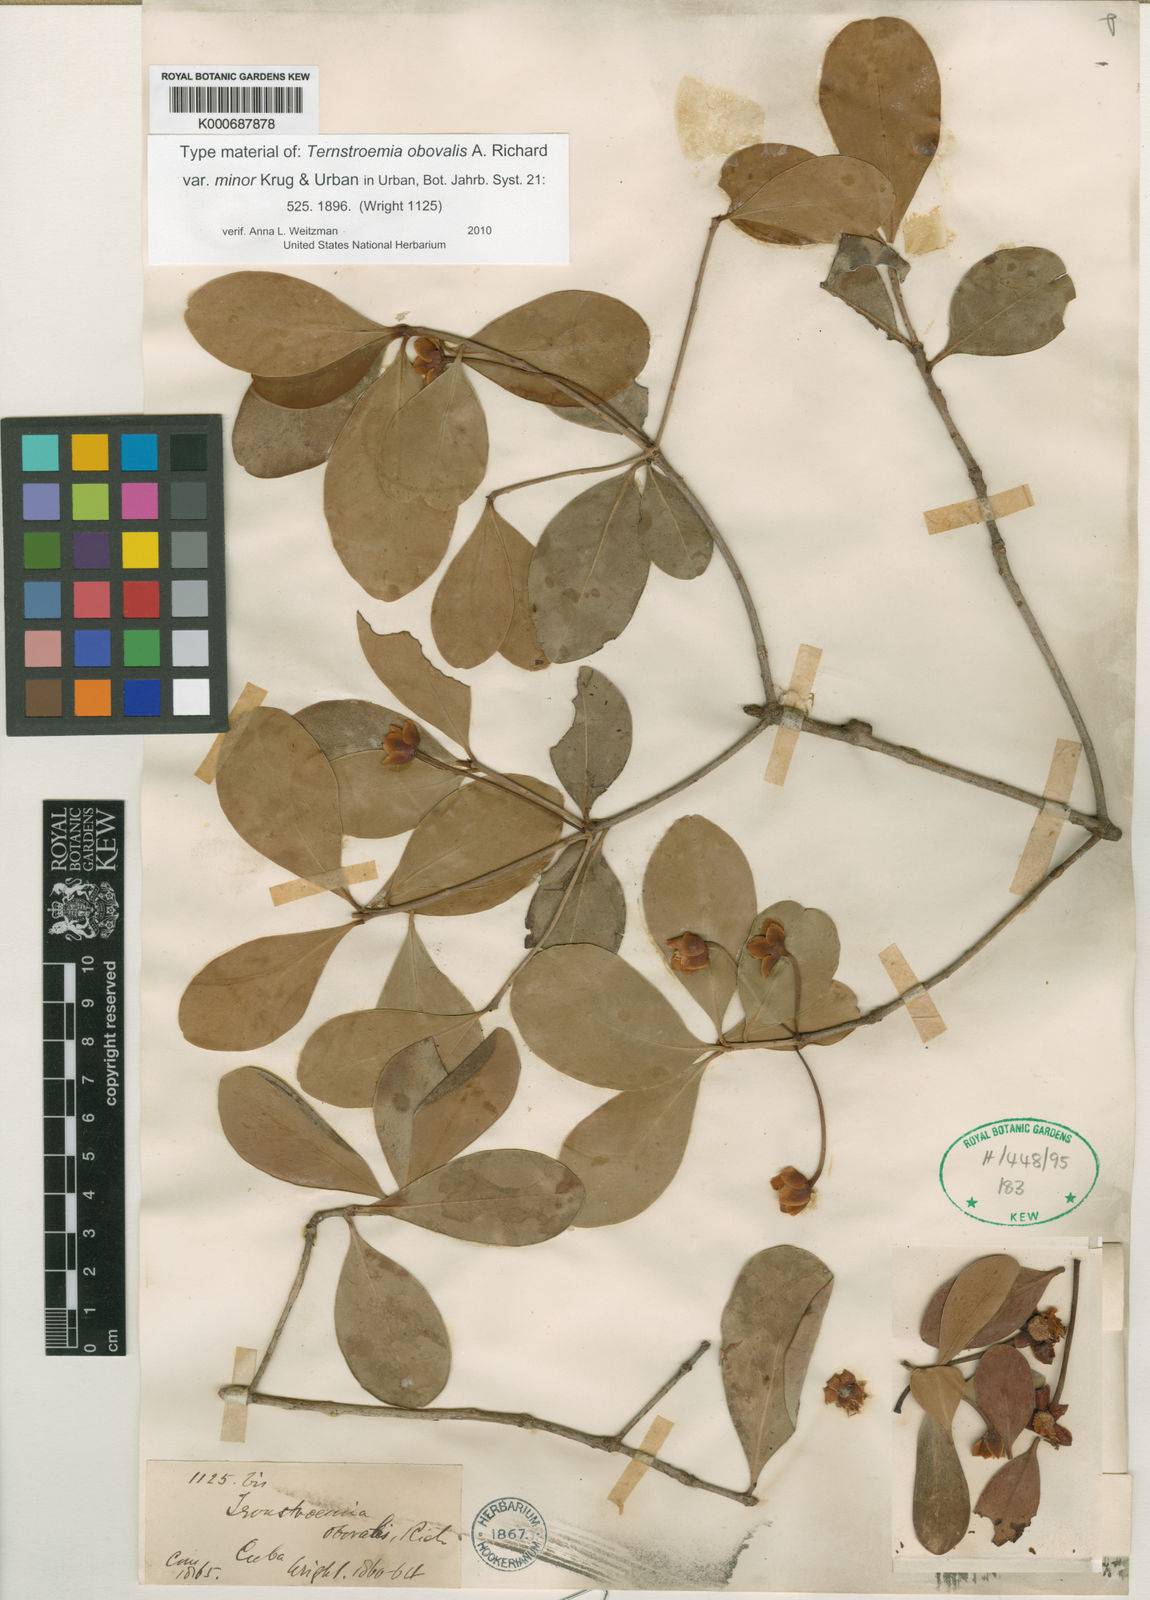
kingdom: Plantae
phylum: Tracheophyta
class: Magnoliopsida
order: Ericales
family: Pentaphylacaceae
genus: Ternstroemia
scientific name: Ternstroemia peduncularis
